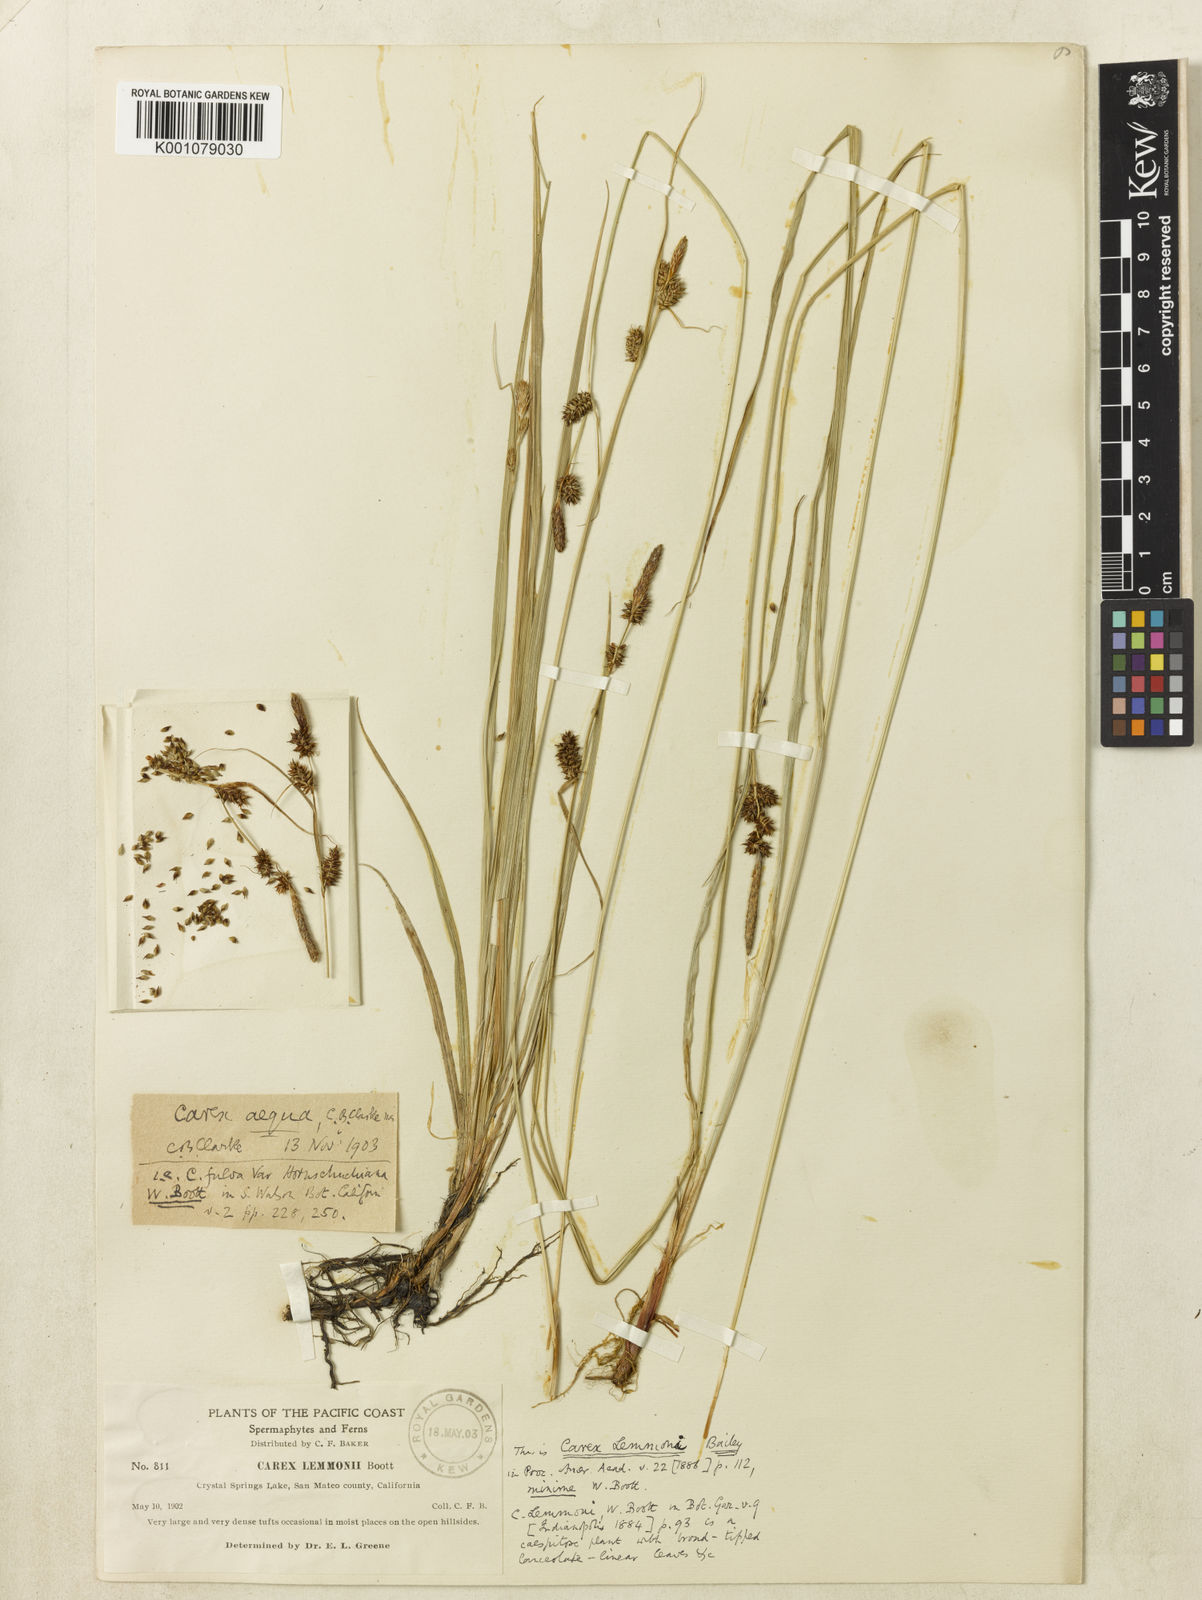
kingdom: Plantae
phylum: Tracheophyta
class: Liliopsida
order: Poales
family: Cyperaceae
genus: Carex
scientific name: Carex serratodens
